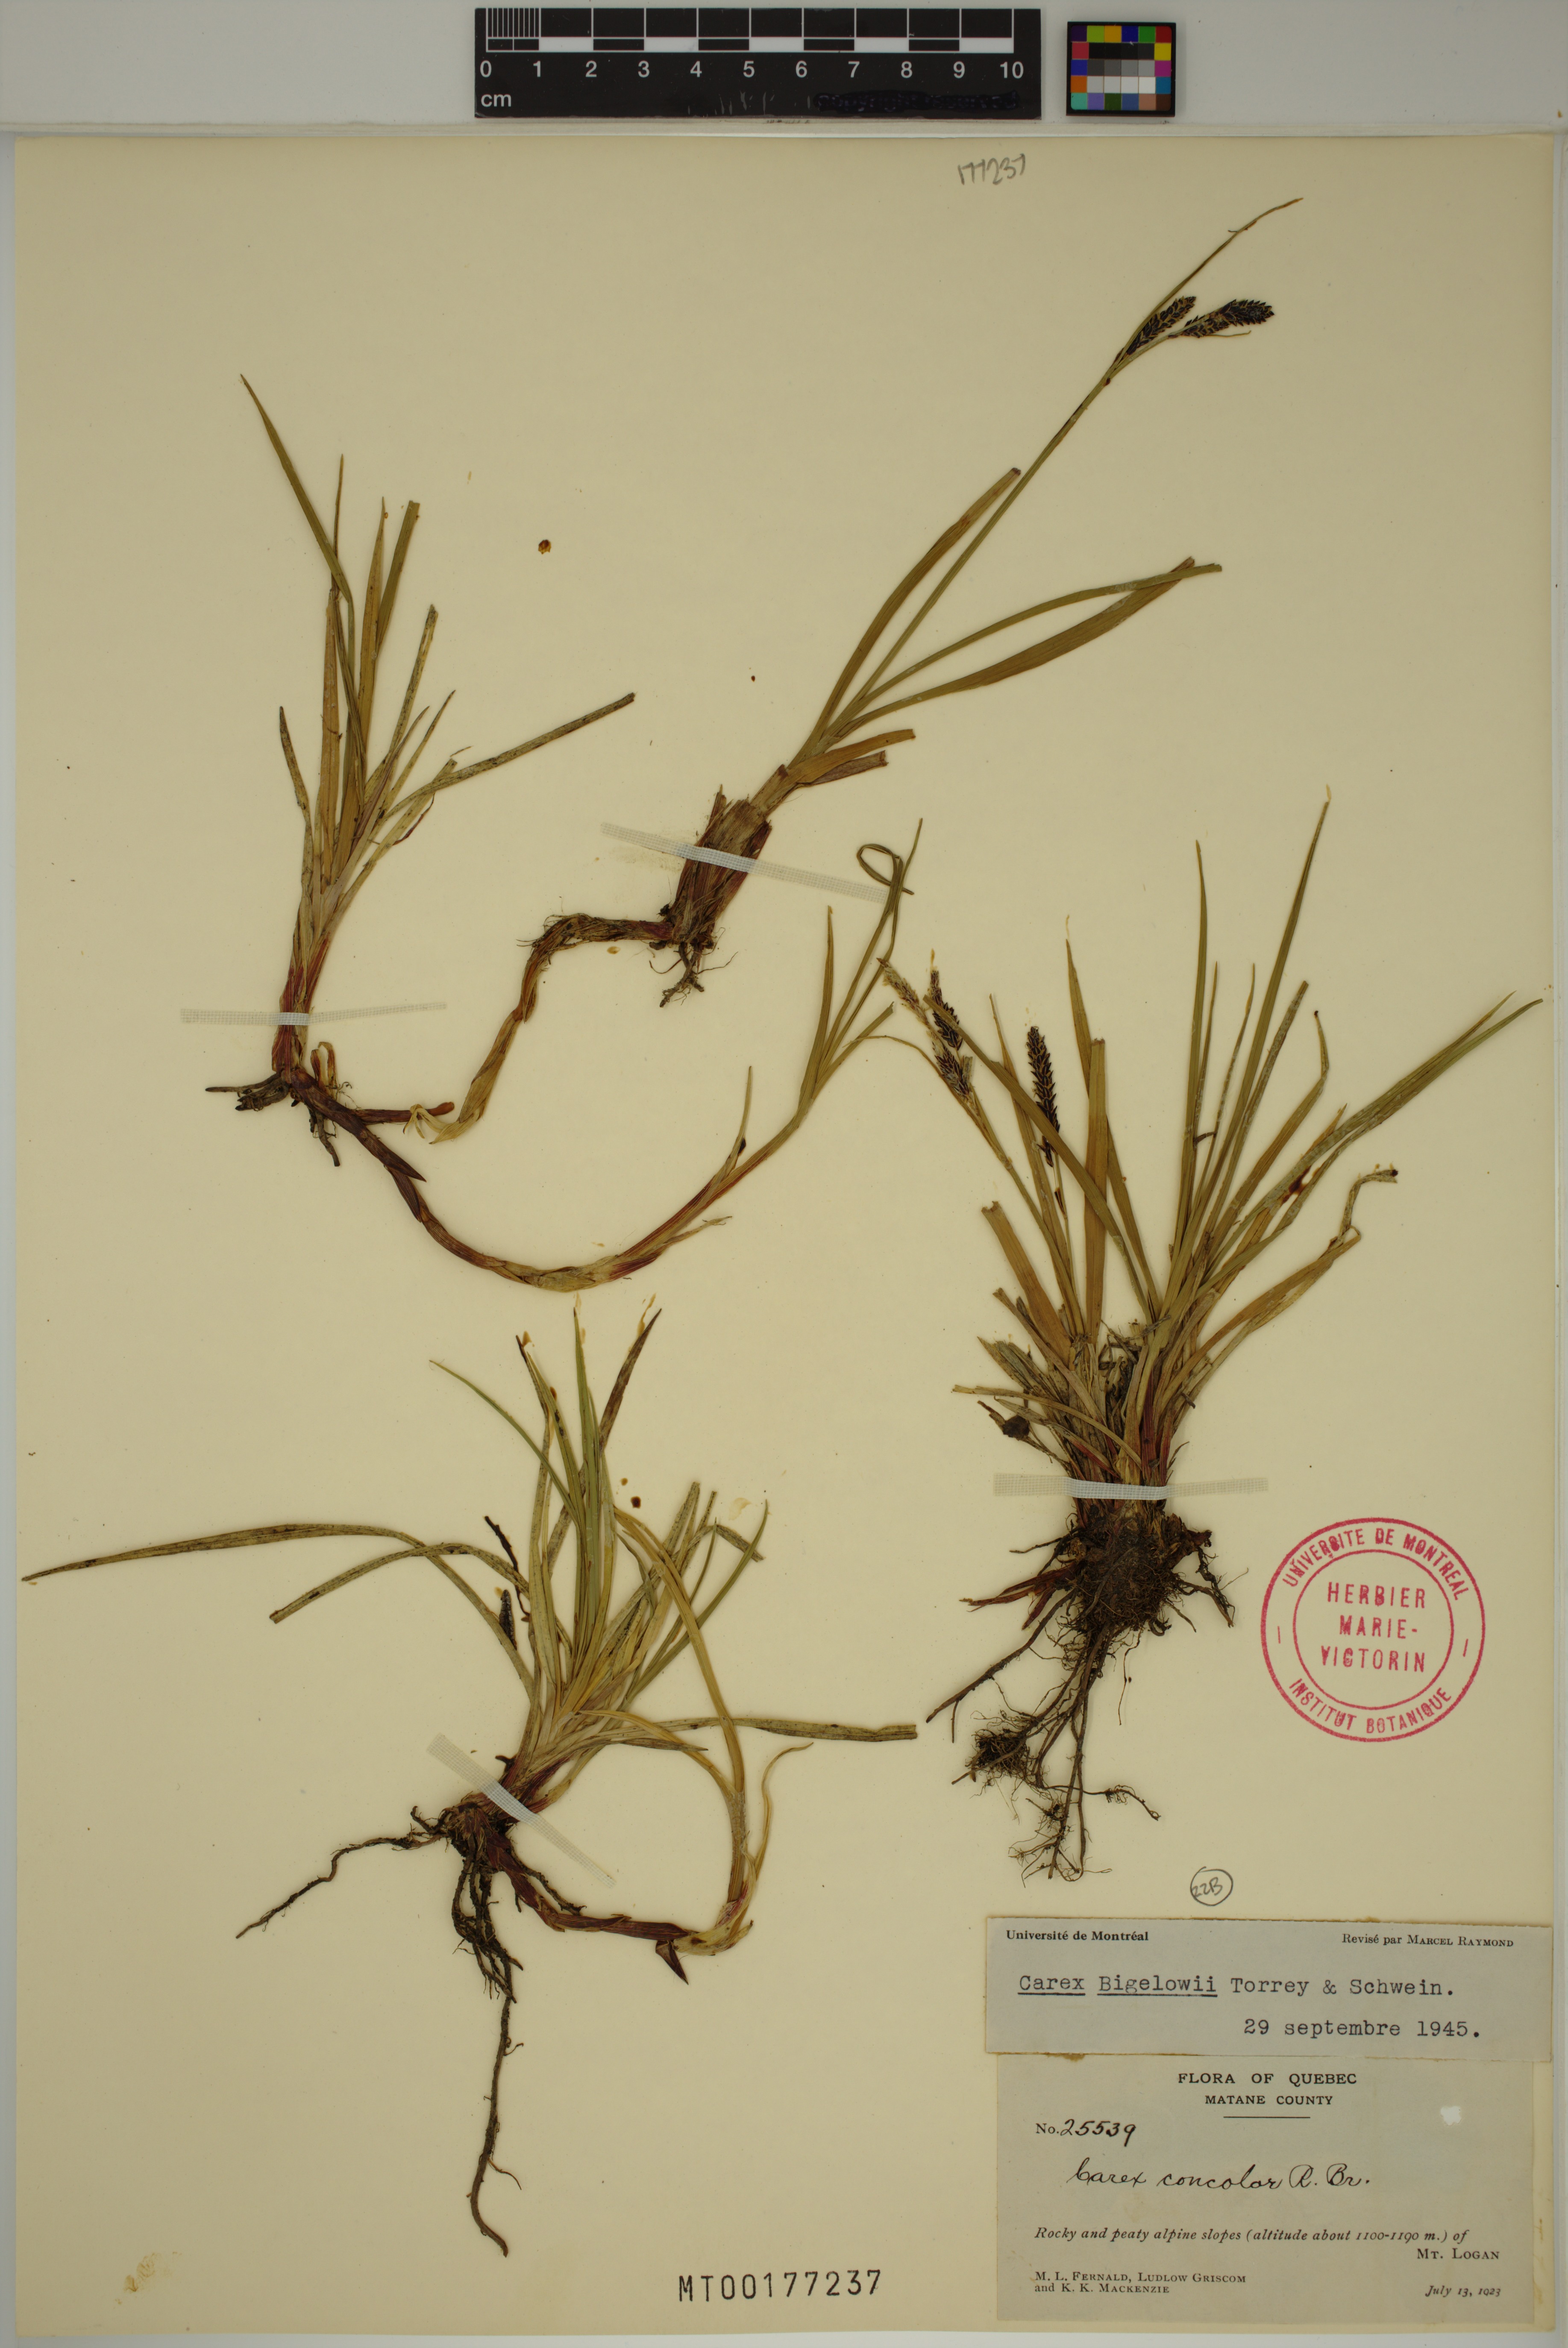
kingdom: Plantae
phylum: Tracheophyta
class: Liliopsida
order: Poales
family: Cyperaceae
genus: Carex
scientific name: Carex bigelowii
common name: Stiff sedge
